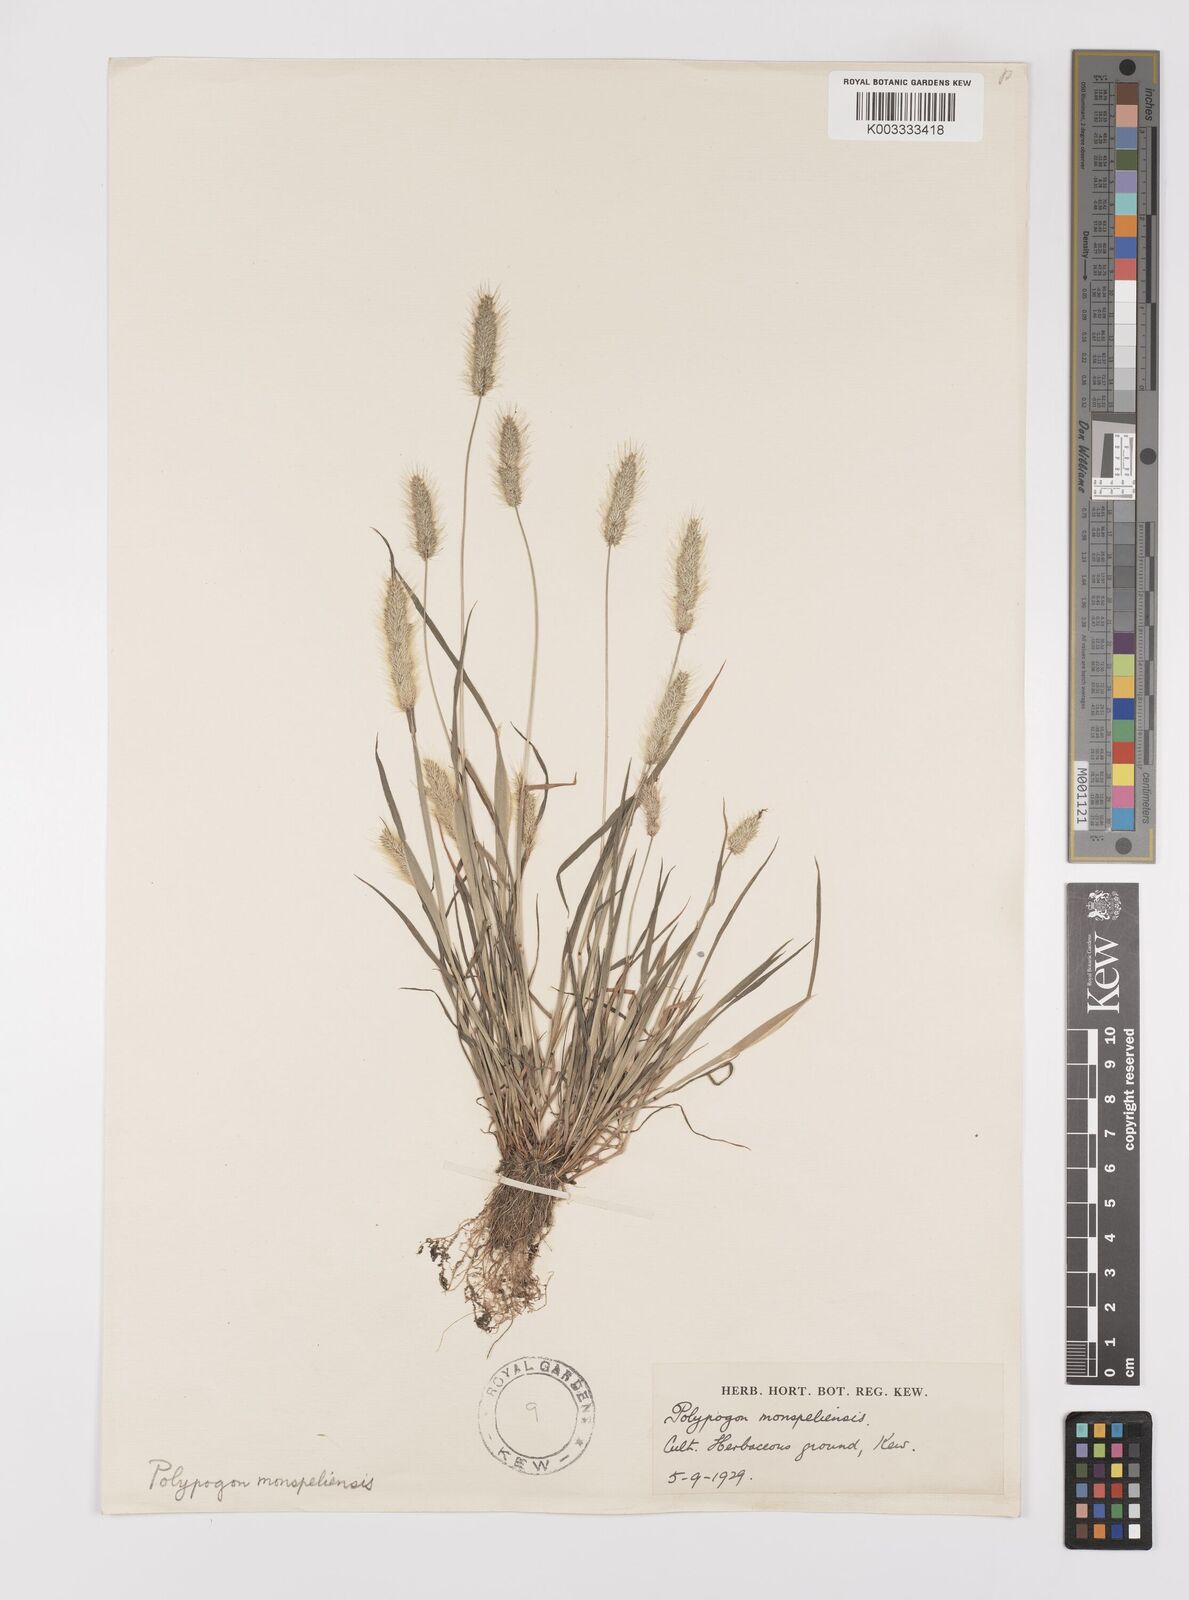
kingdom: Plantae
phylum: Tracheophyta
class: Liliopsida
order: Poales
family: Poaceae
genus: Polypogon
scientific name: Polypogon monspeliensis
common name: Annual rabbitsfoot grass
